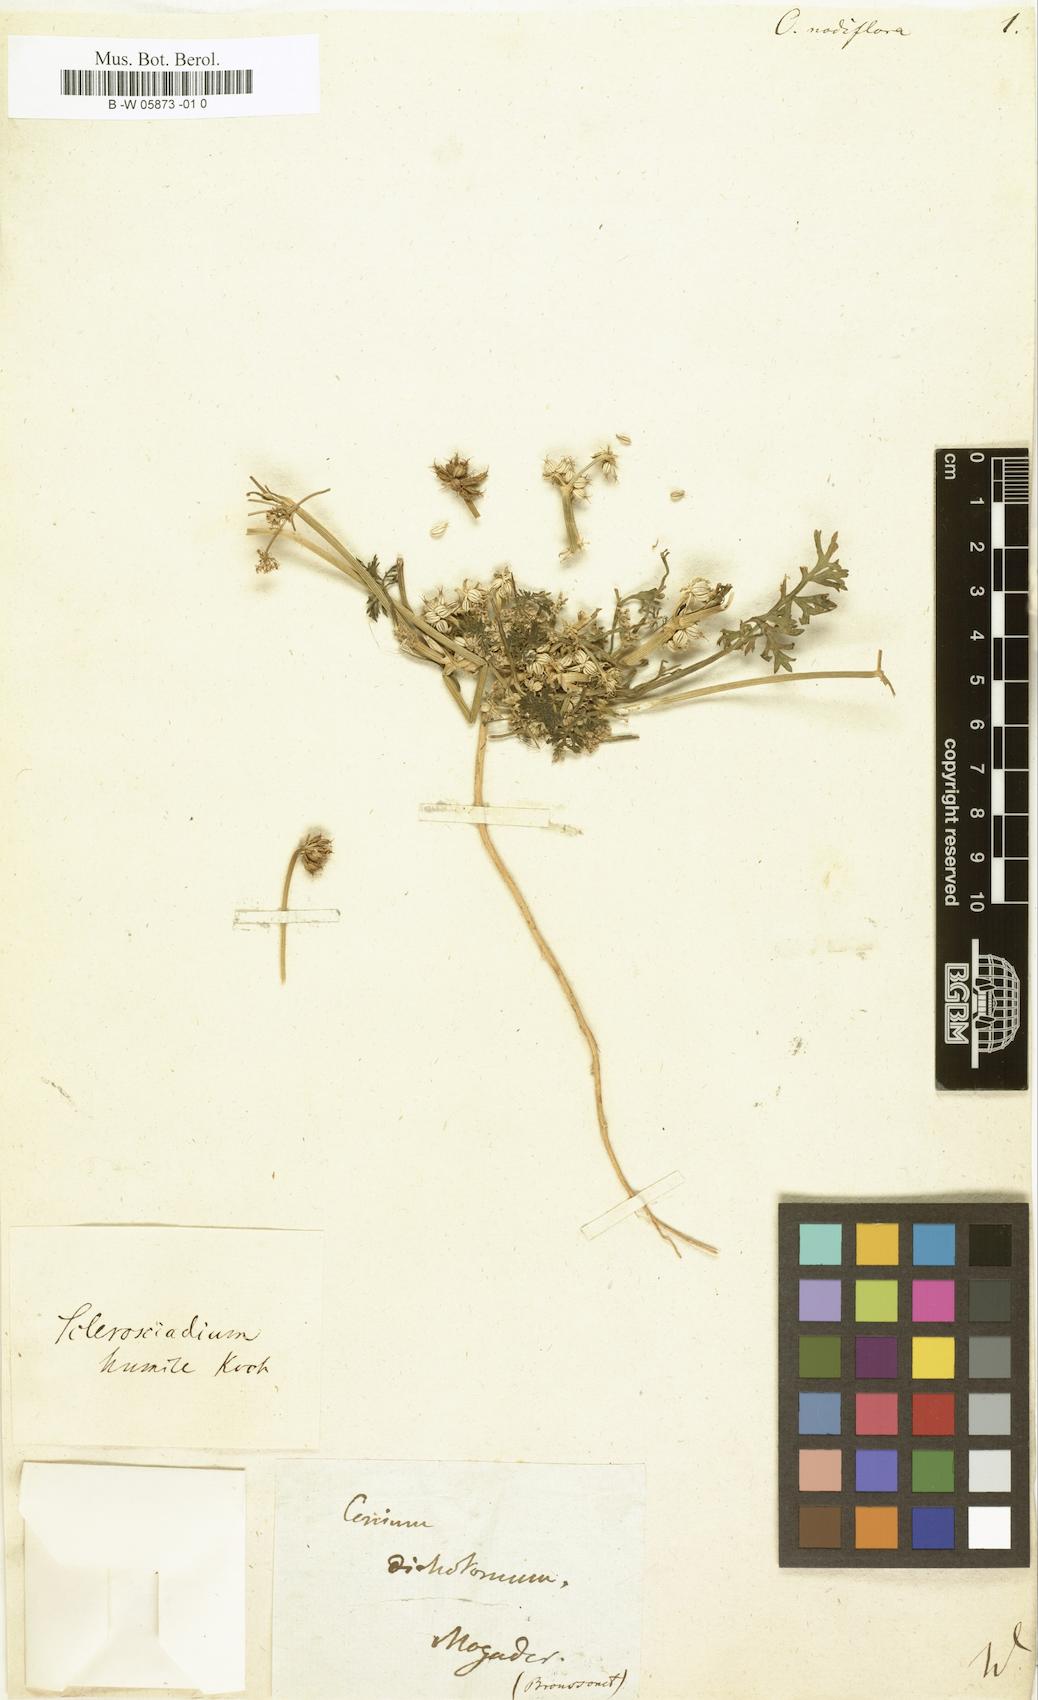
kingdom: Plantae
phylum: Tracheophyta
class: Magnoliopsida
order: Apiales
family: Apiaceae
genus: Sclerosciadium
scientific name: Sclerosciadium nodiflorum
